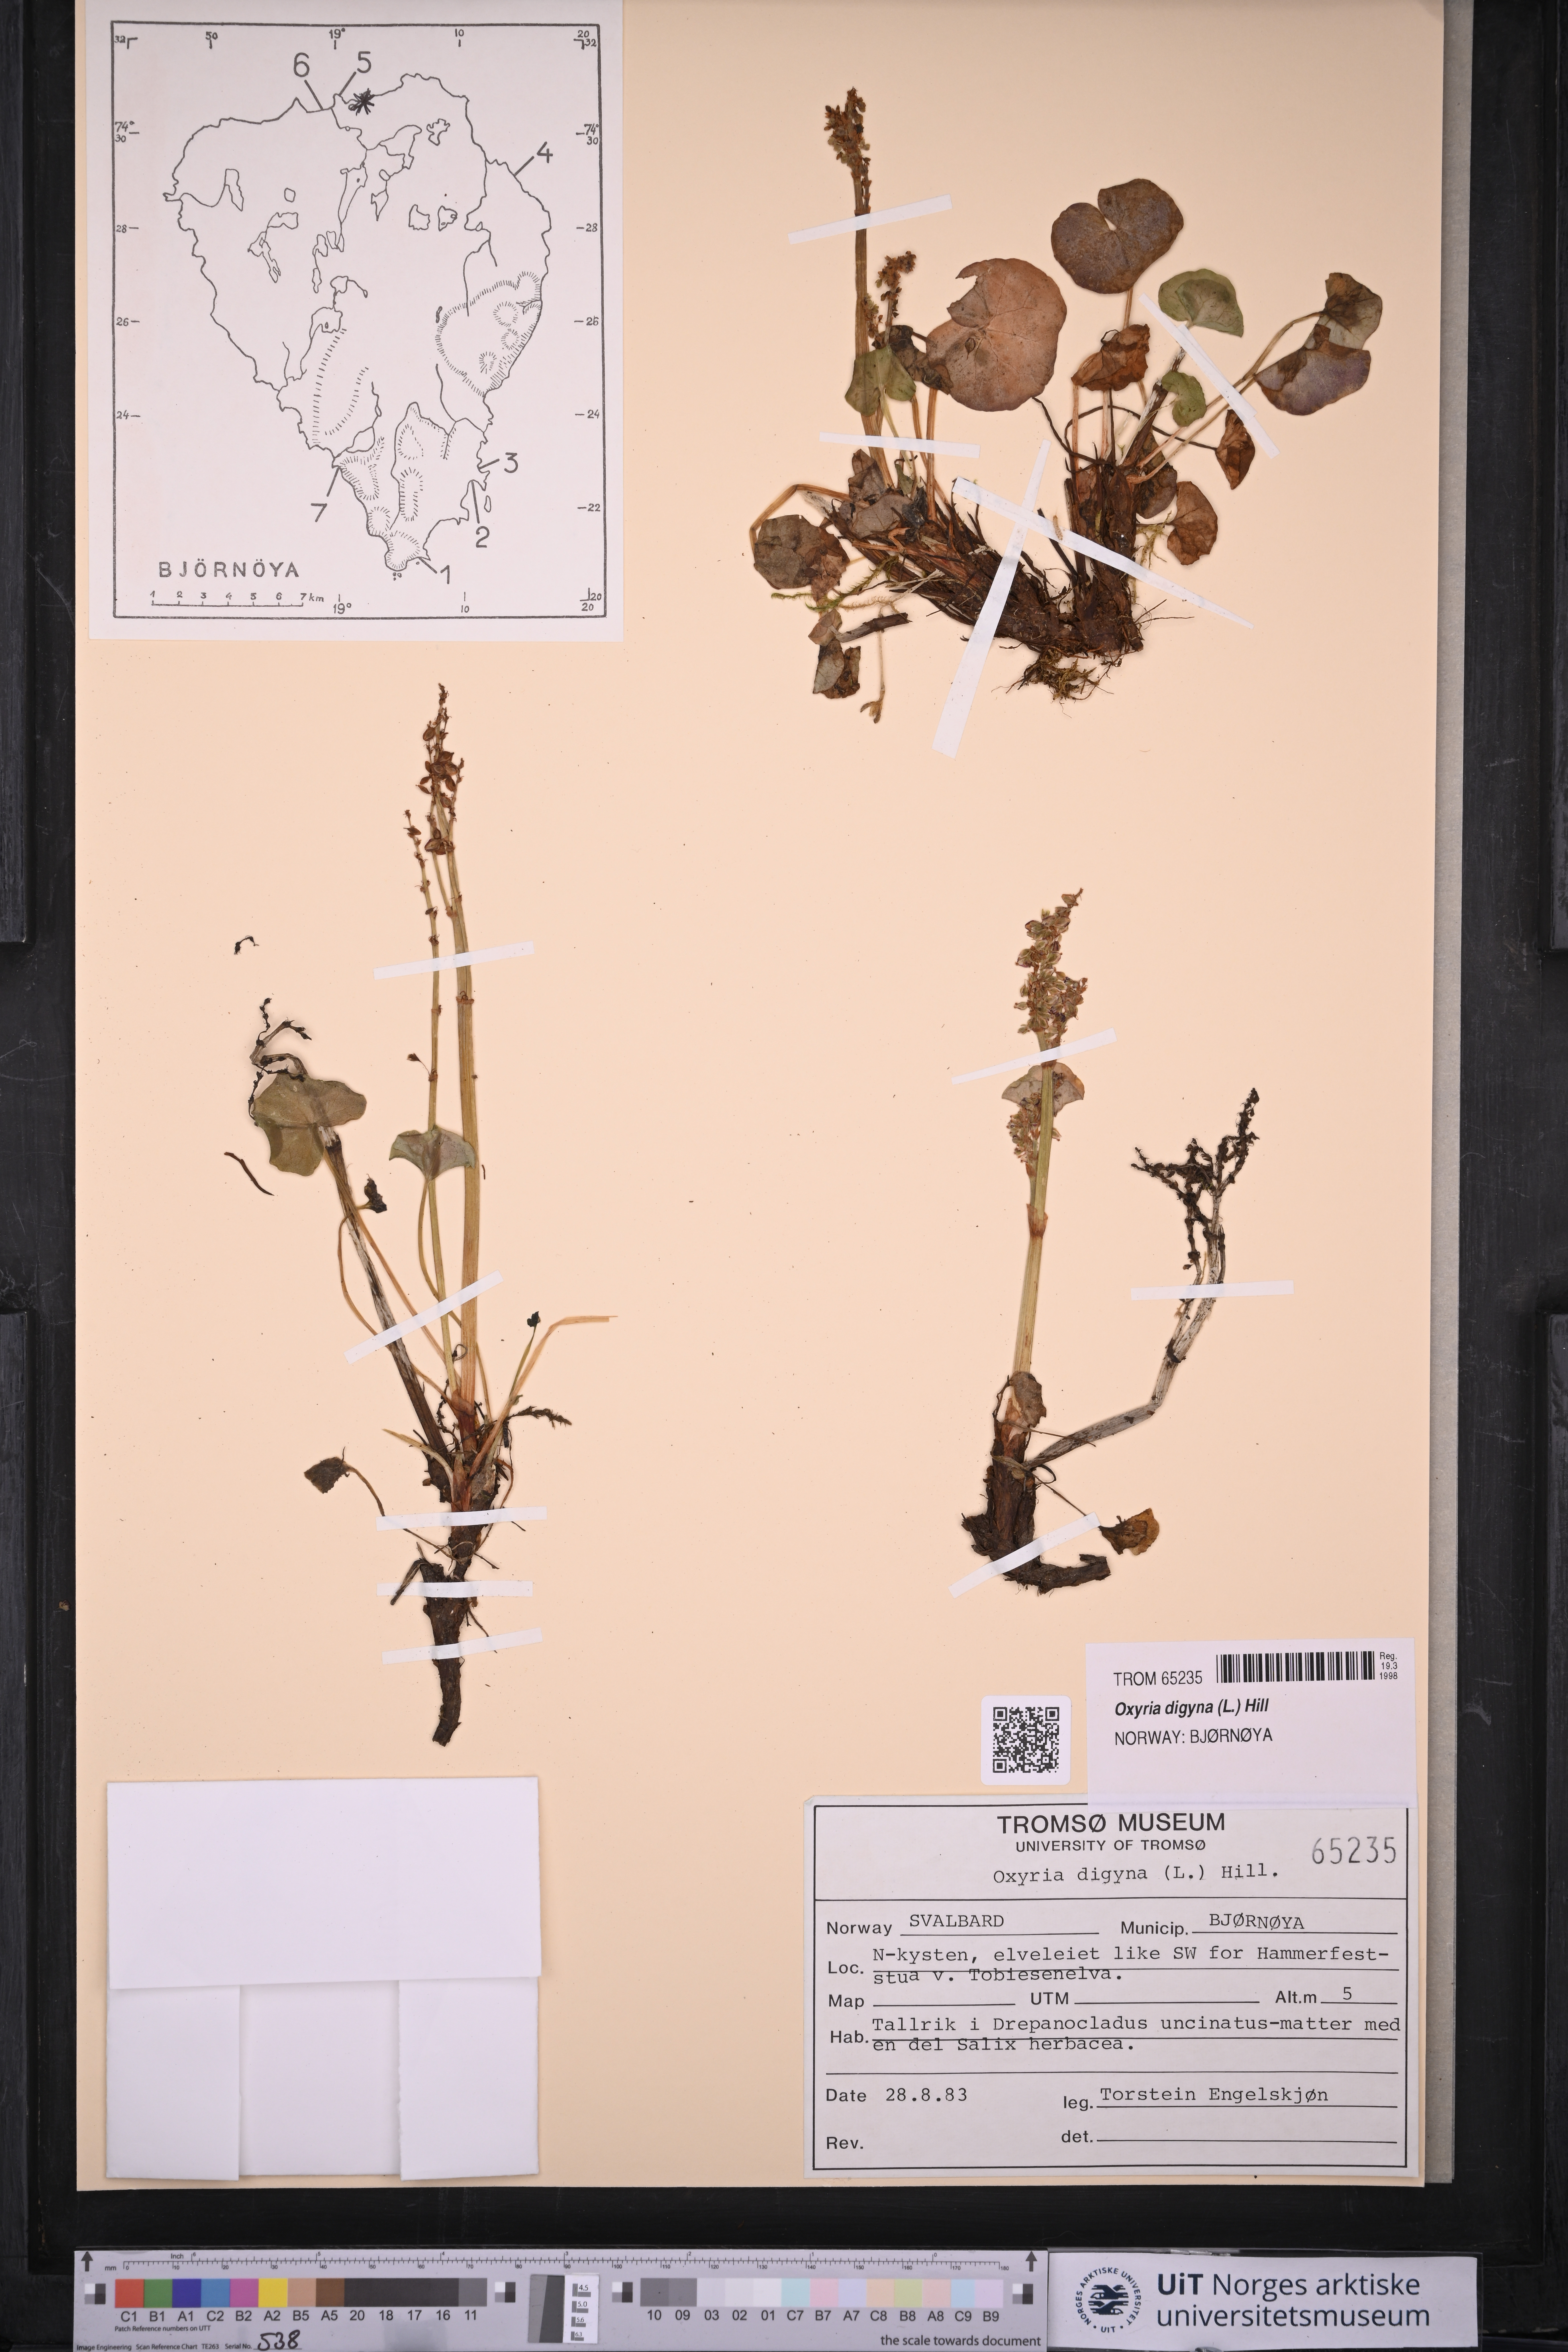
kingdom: Plantae
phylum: Tracheophyta
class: Magnoliopsida
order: Caryophyllales
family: Polygonaceae
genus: Oxyria
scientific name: Oxyria digyna
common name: Alpine mountain-sorrel
